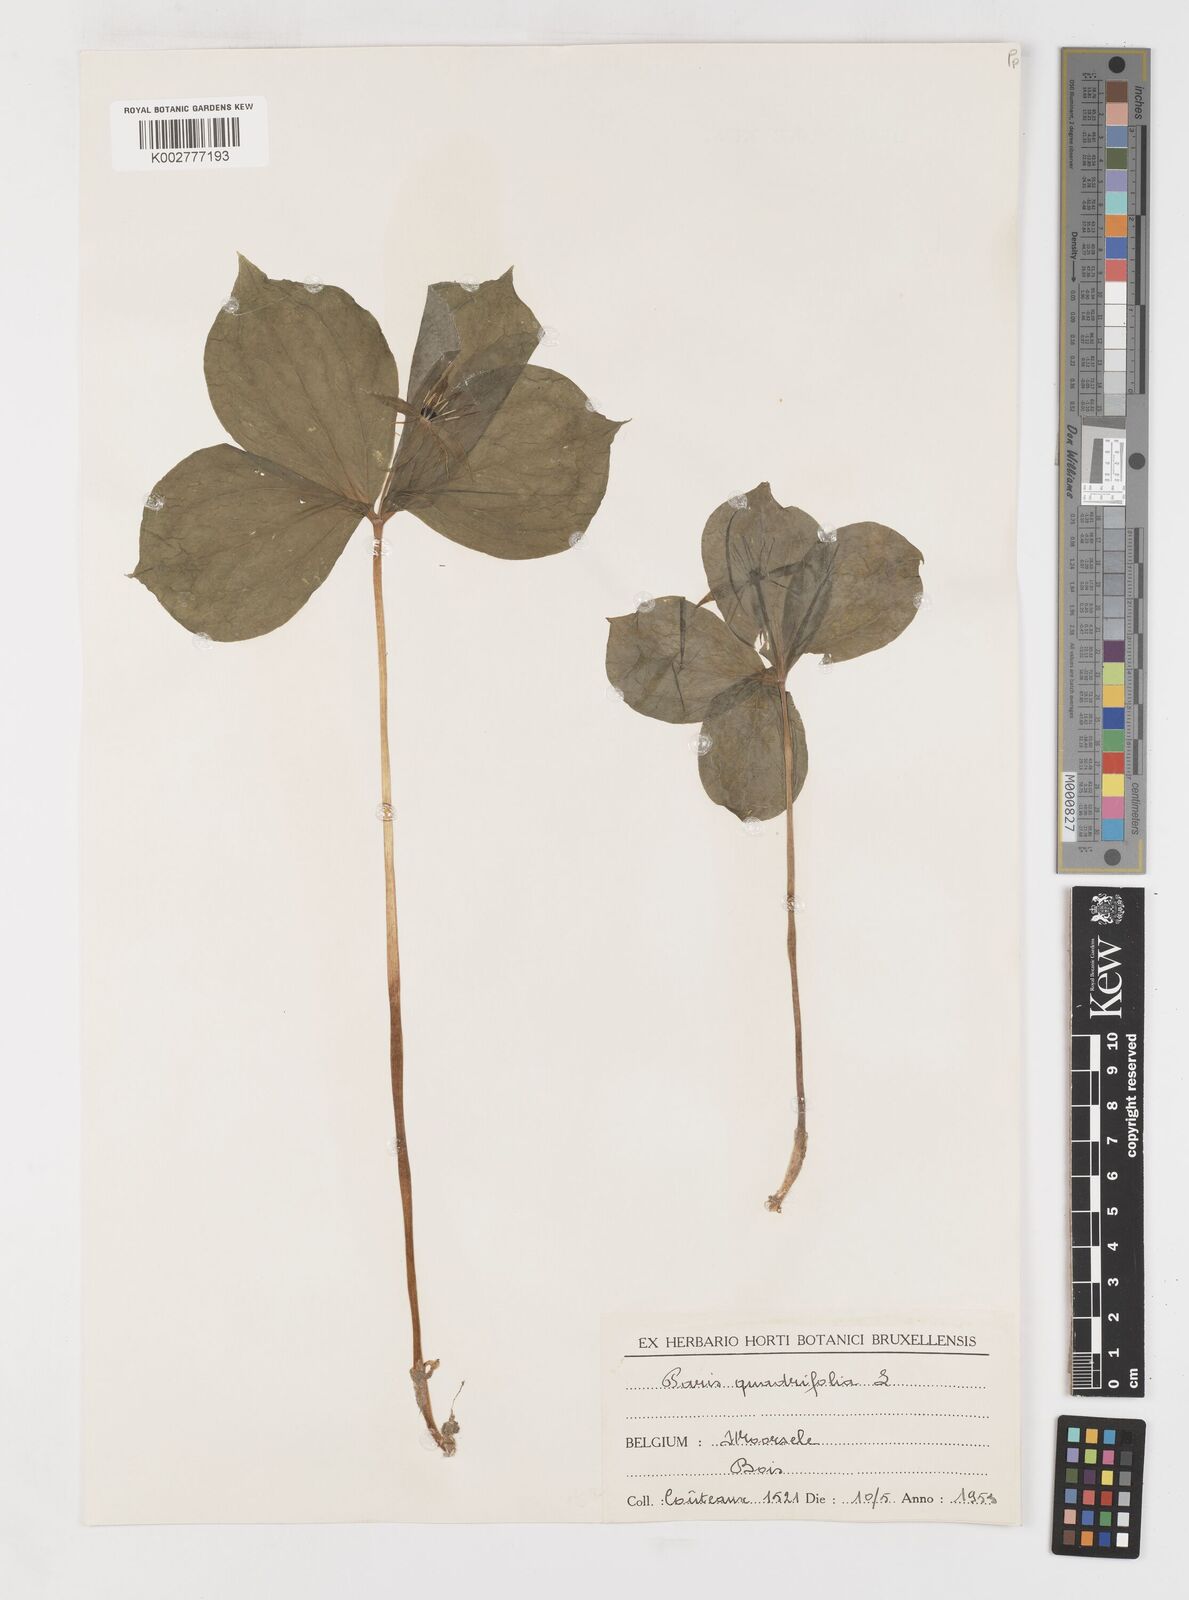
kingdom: Plantae
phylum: Tracheophyta
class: Liliopsida
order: Liliales
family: Melanthiaceae
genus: Paris
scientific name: Paris quadrifolia
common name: Herb-paris
